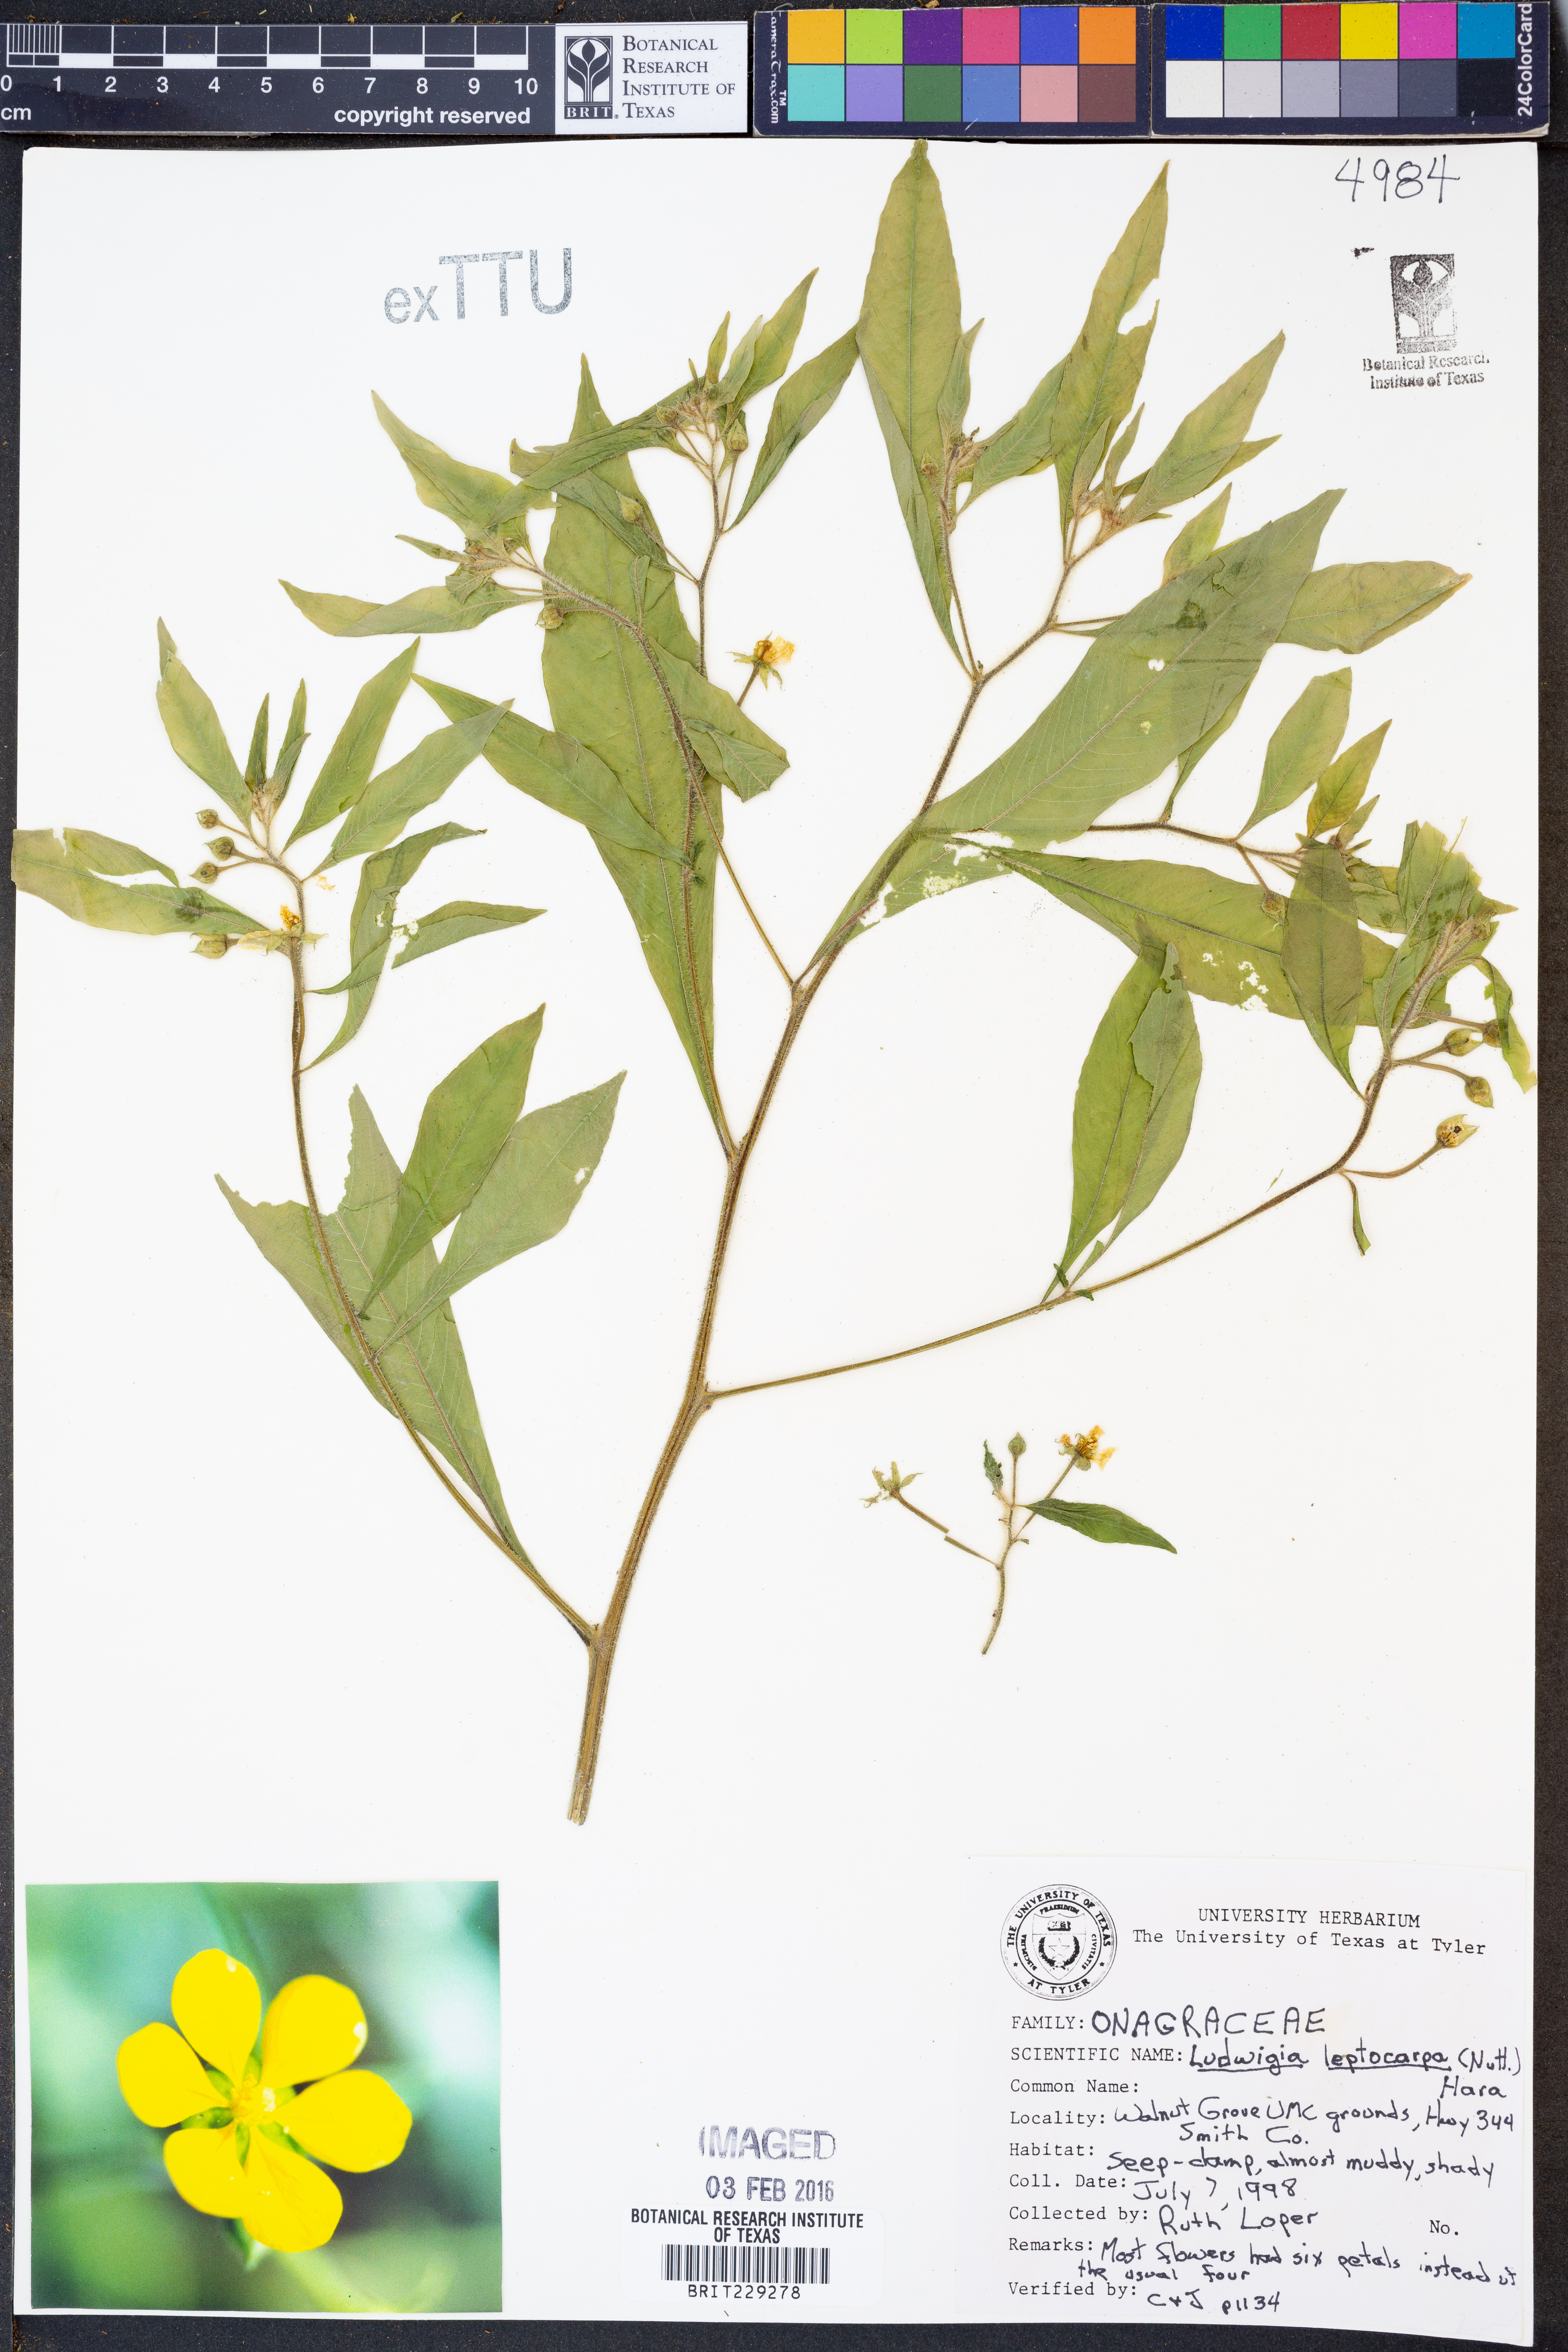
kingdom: Plantae
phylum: Tracheophyta
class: Magnoliopsida
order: Myrtales
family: Onagraceae
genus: Ludwigia
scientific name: Ludwigia leptocarpa
